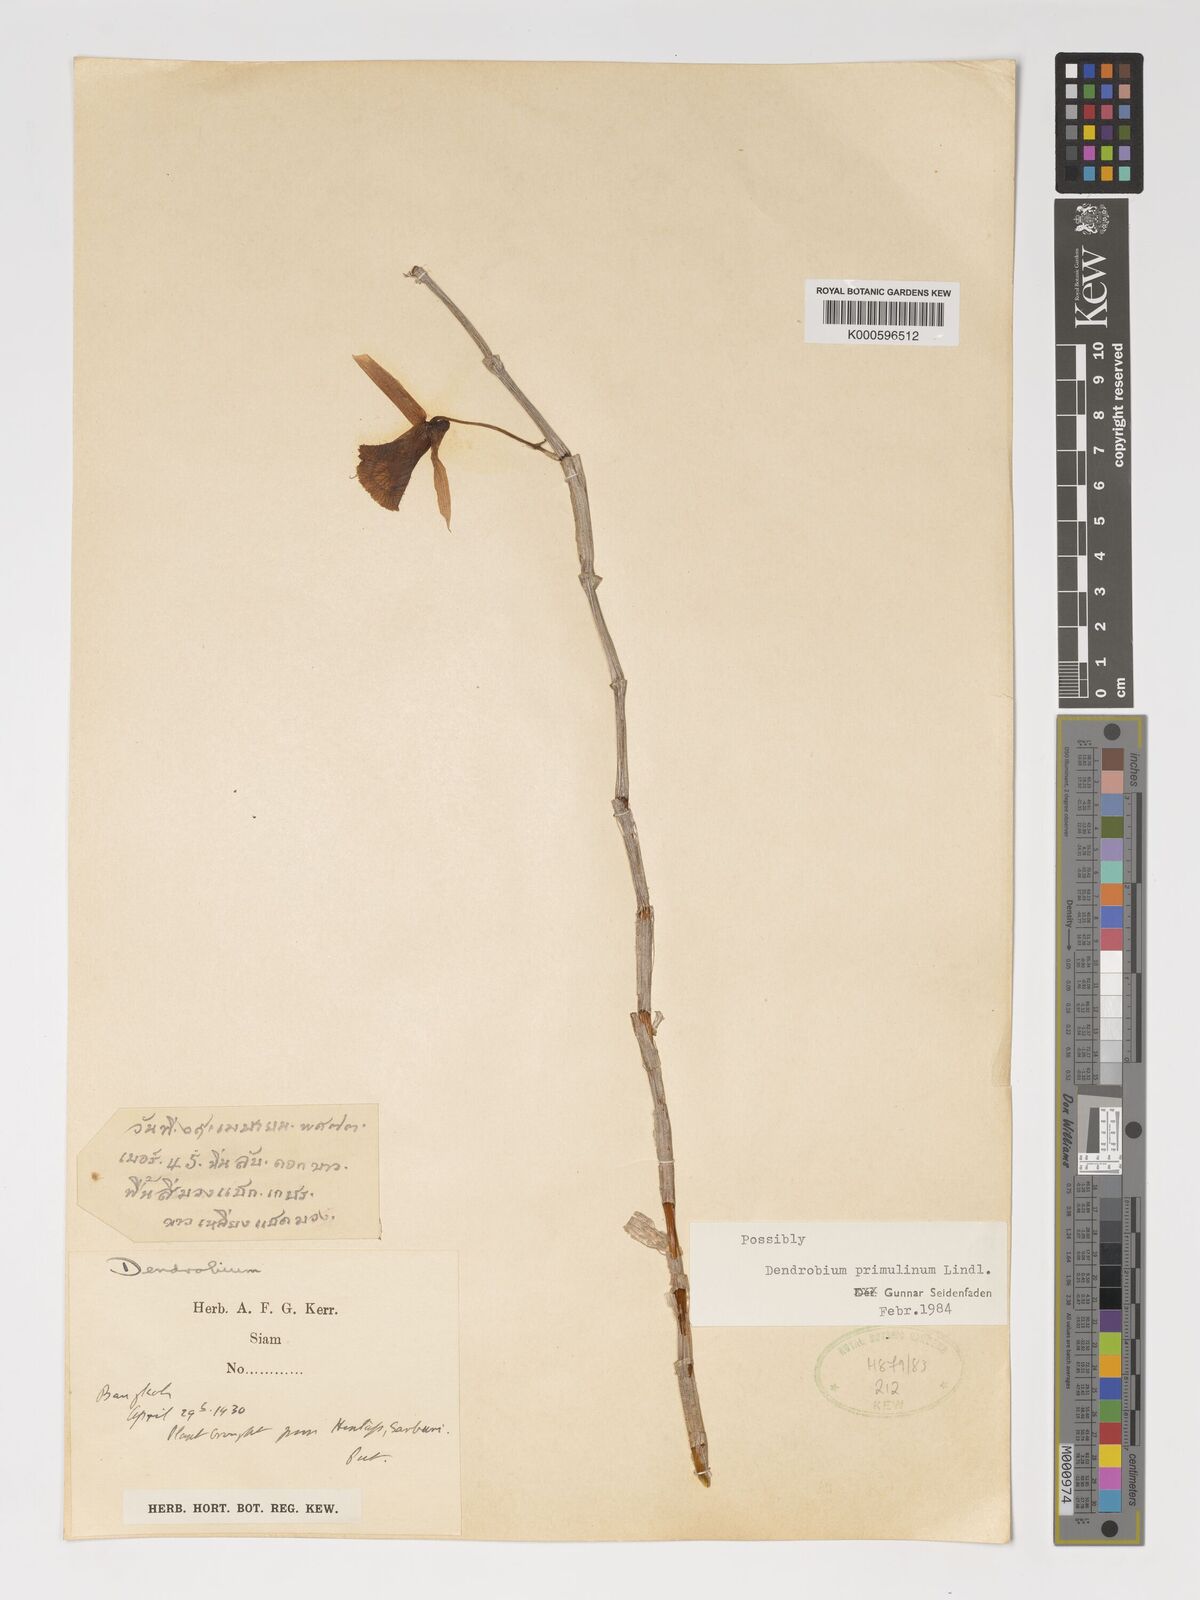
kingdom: Plantae
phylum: Tracheophyta
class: Liliopsida
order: Asparagales
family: Orchidaceae
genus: Dendrobium
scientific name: Dendrobium polyanthum
